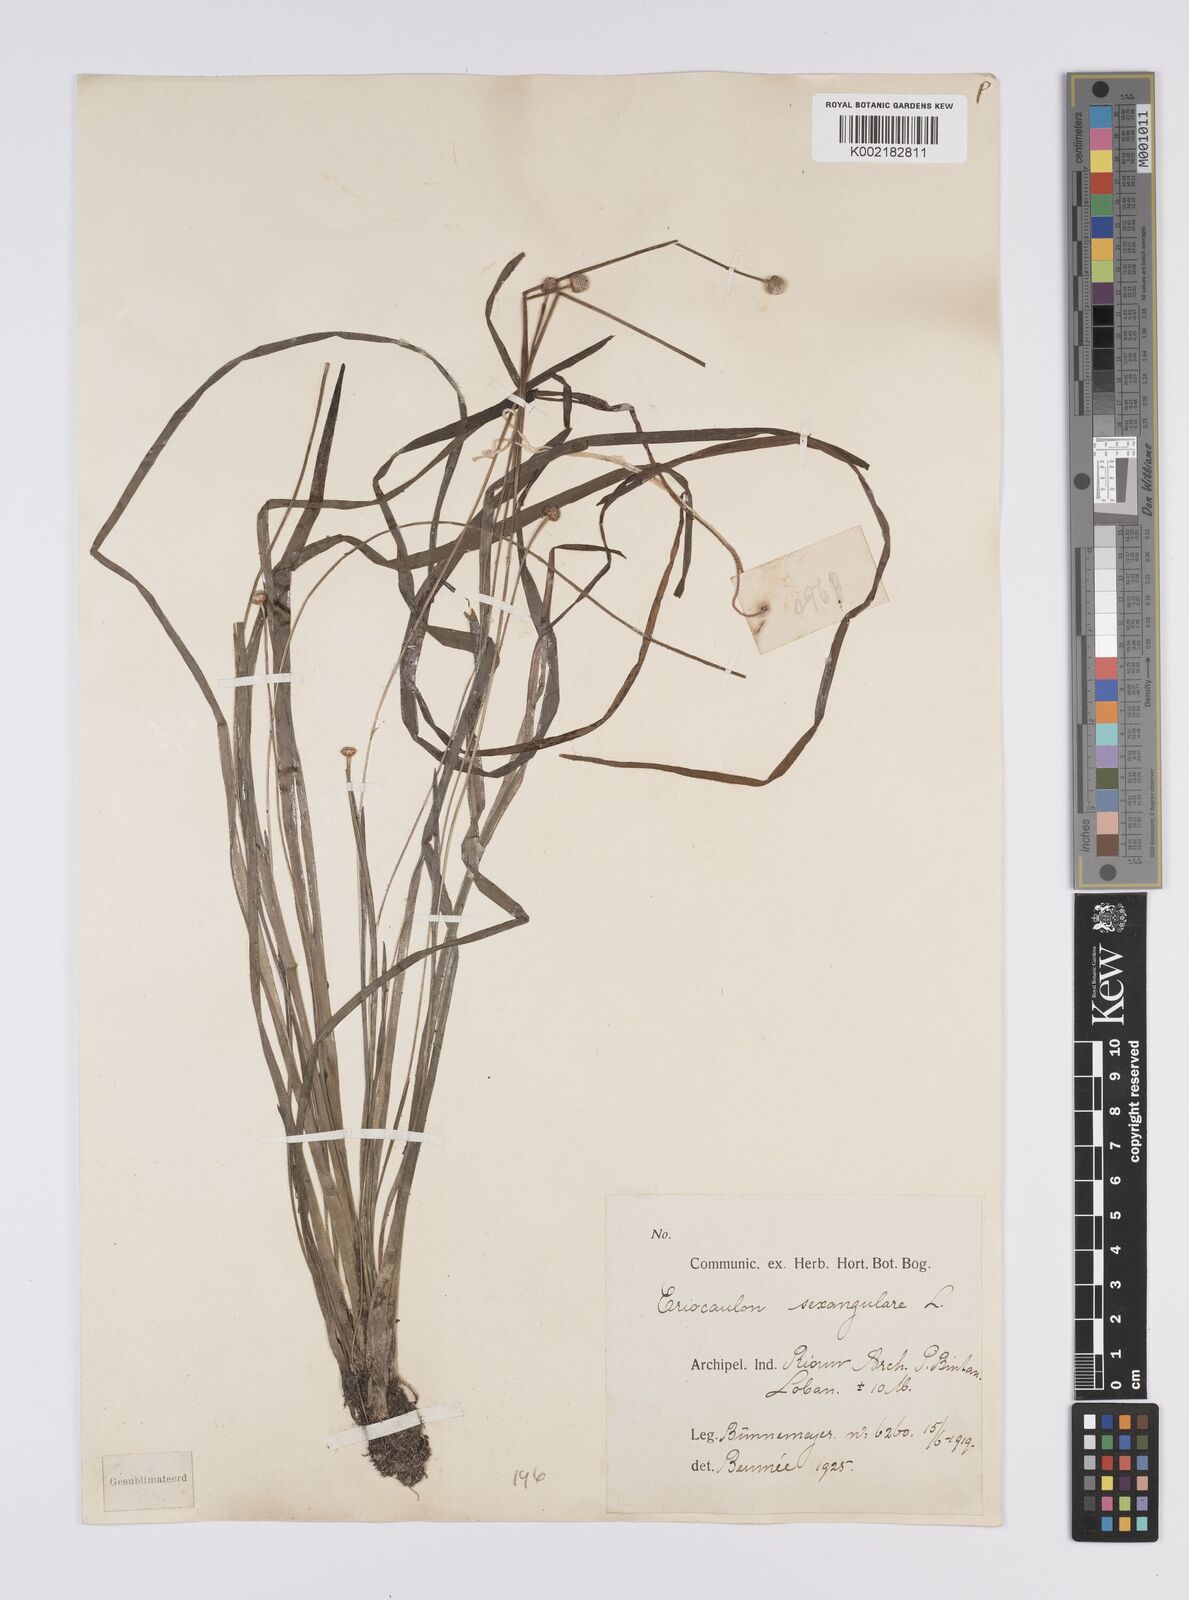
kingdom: Plantae
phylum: Tracheophyta
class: Liliopsida
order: Poales
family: Eriocaulaceae
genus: Eriocaulon
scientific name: Eriocaulon sexangulare
